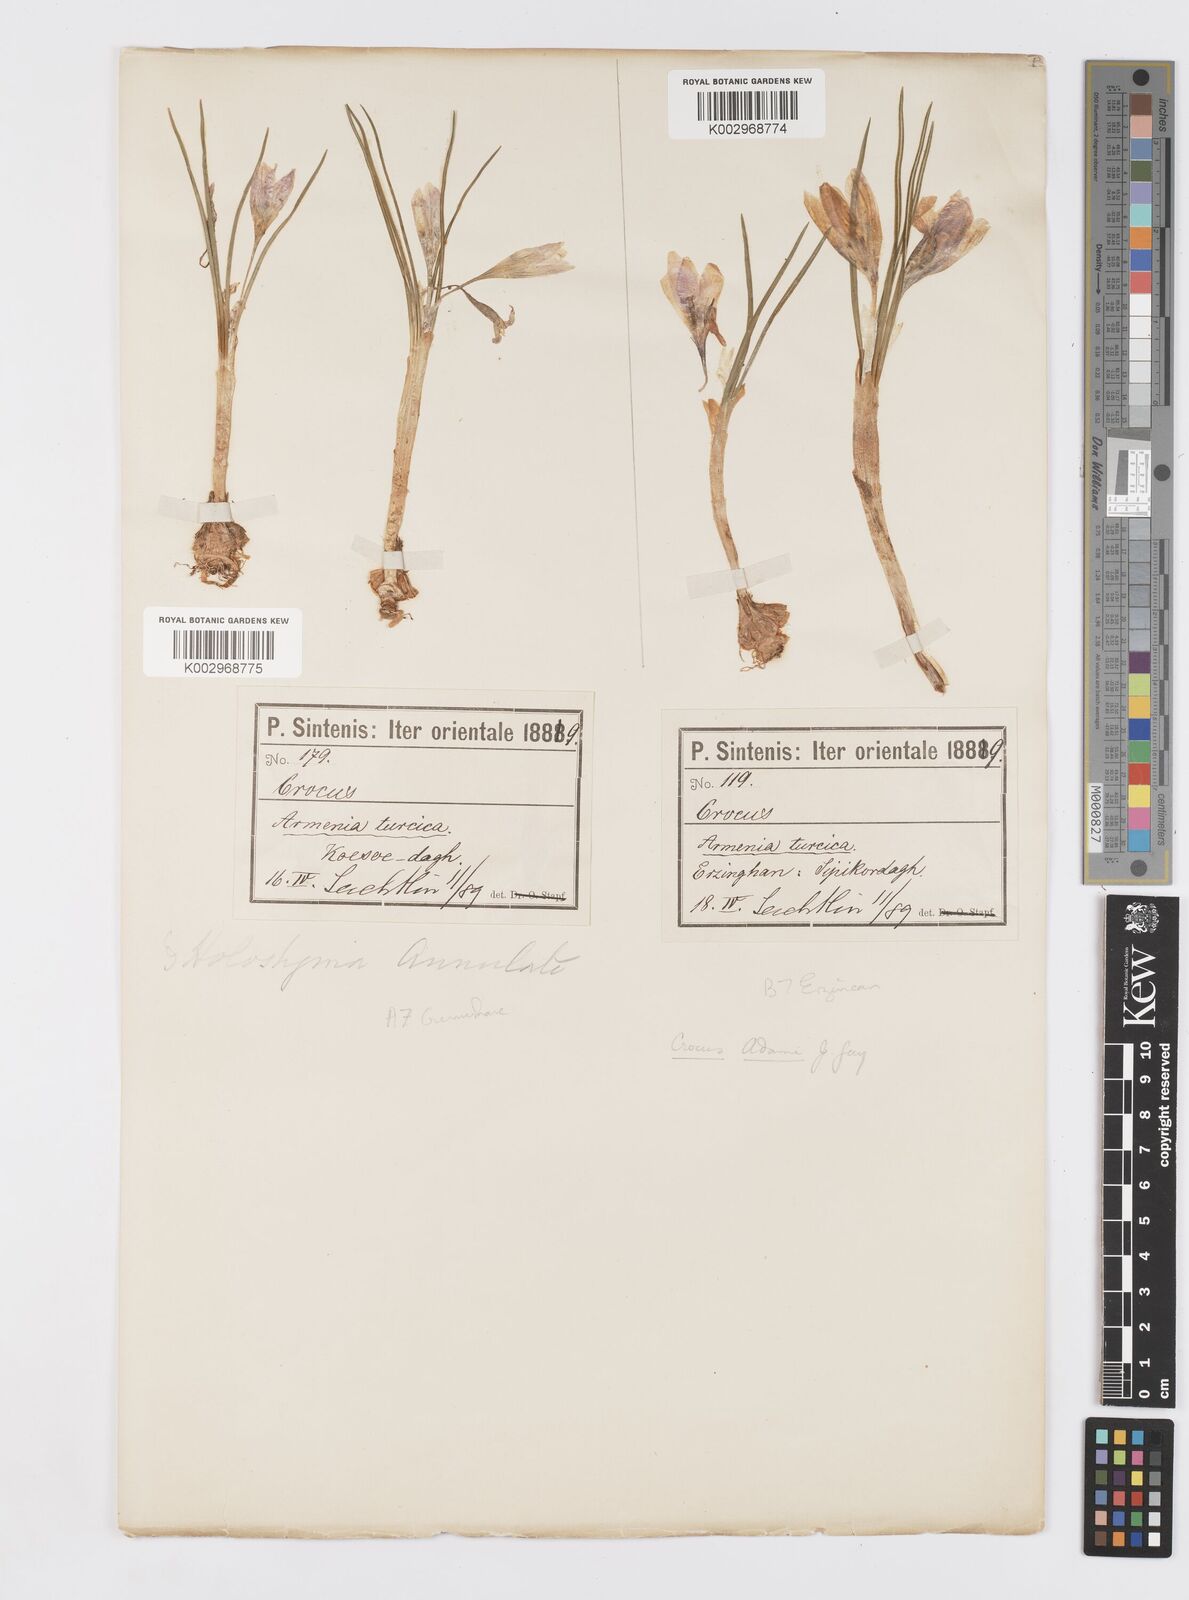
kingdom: Plantae
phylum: Tracheophyta
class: Liliopsida
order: Asparagales
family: Iridaceae
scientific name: Iridaceae
